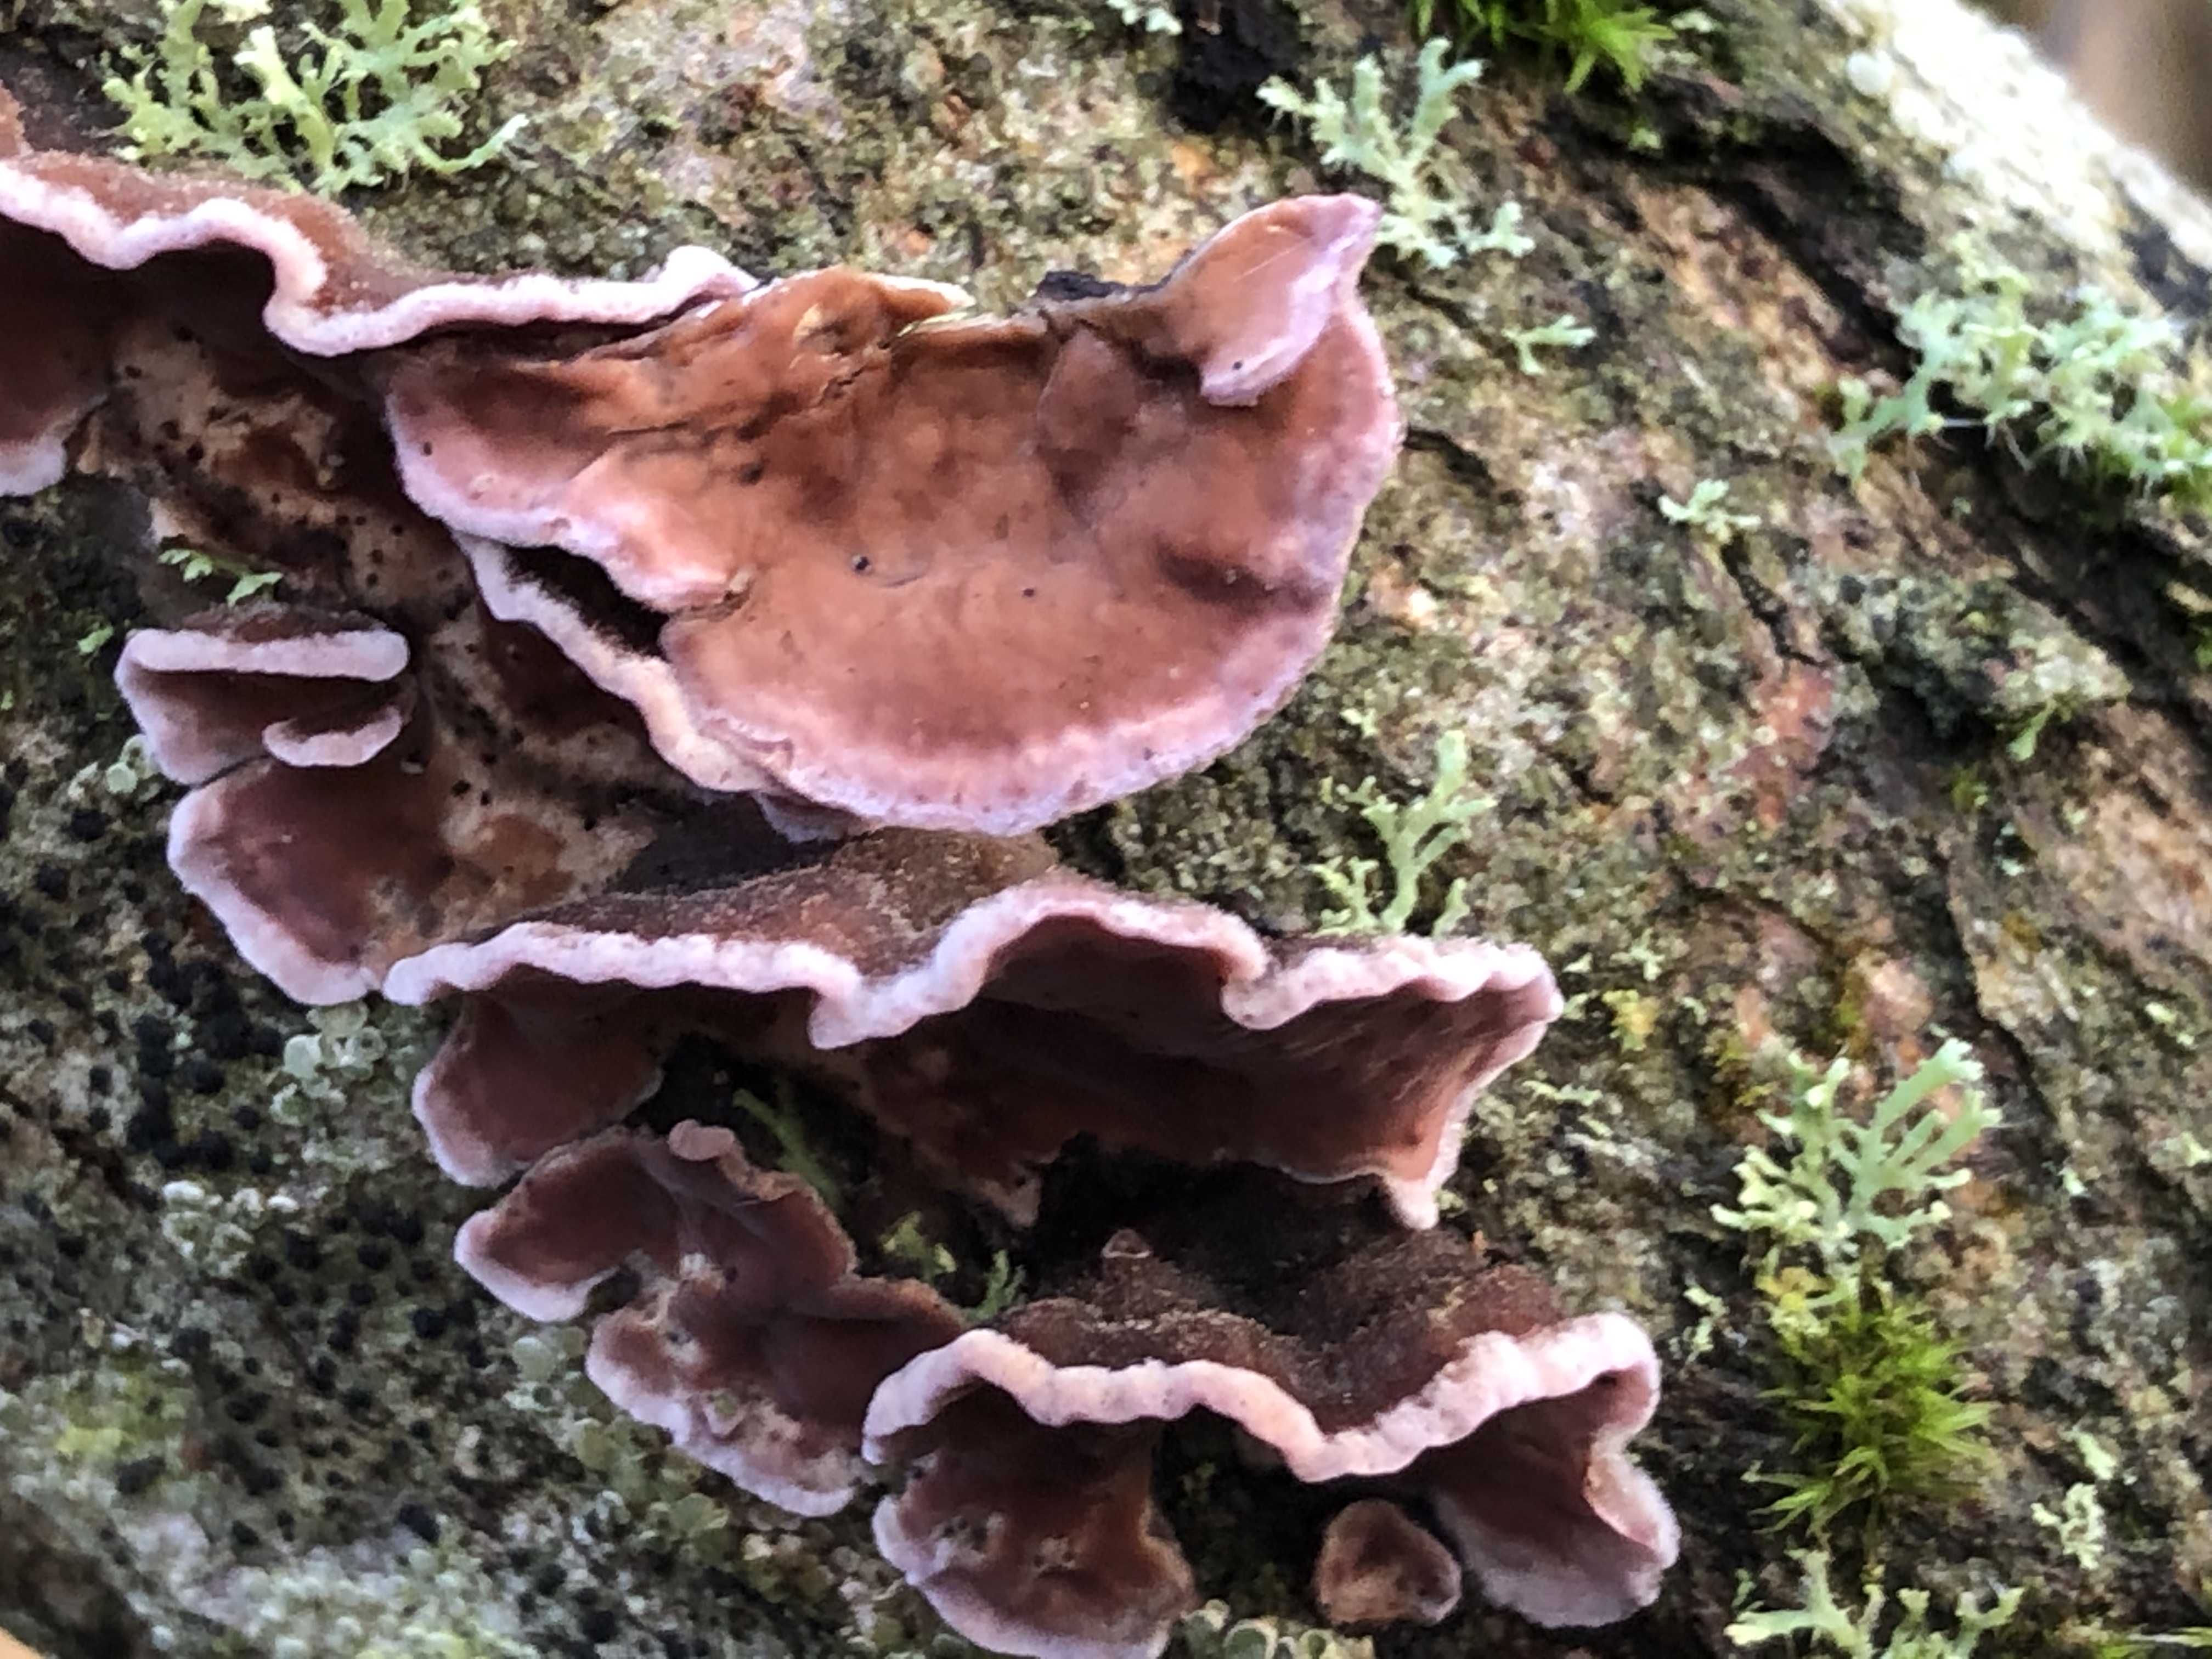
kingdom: Fungi
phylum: Basidiomycota
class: Agaricomycetes
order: Agaricales
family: Cyphellaceae
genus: Chondrostereum
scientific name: Chondrostereum purpureum
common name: purpurlædersvamp
